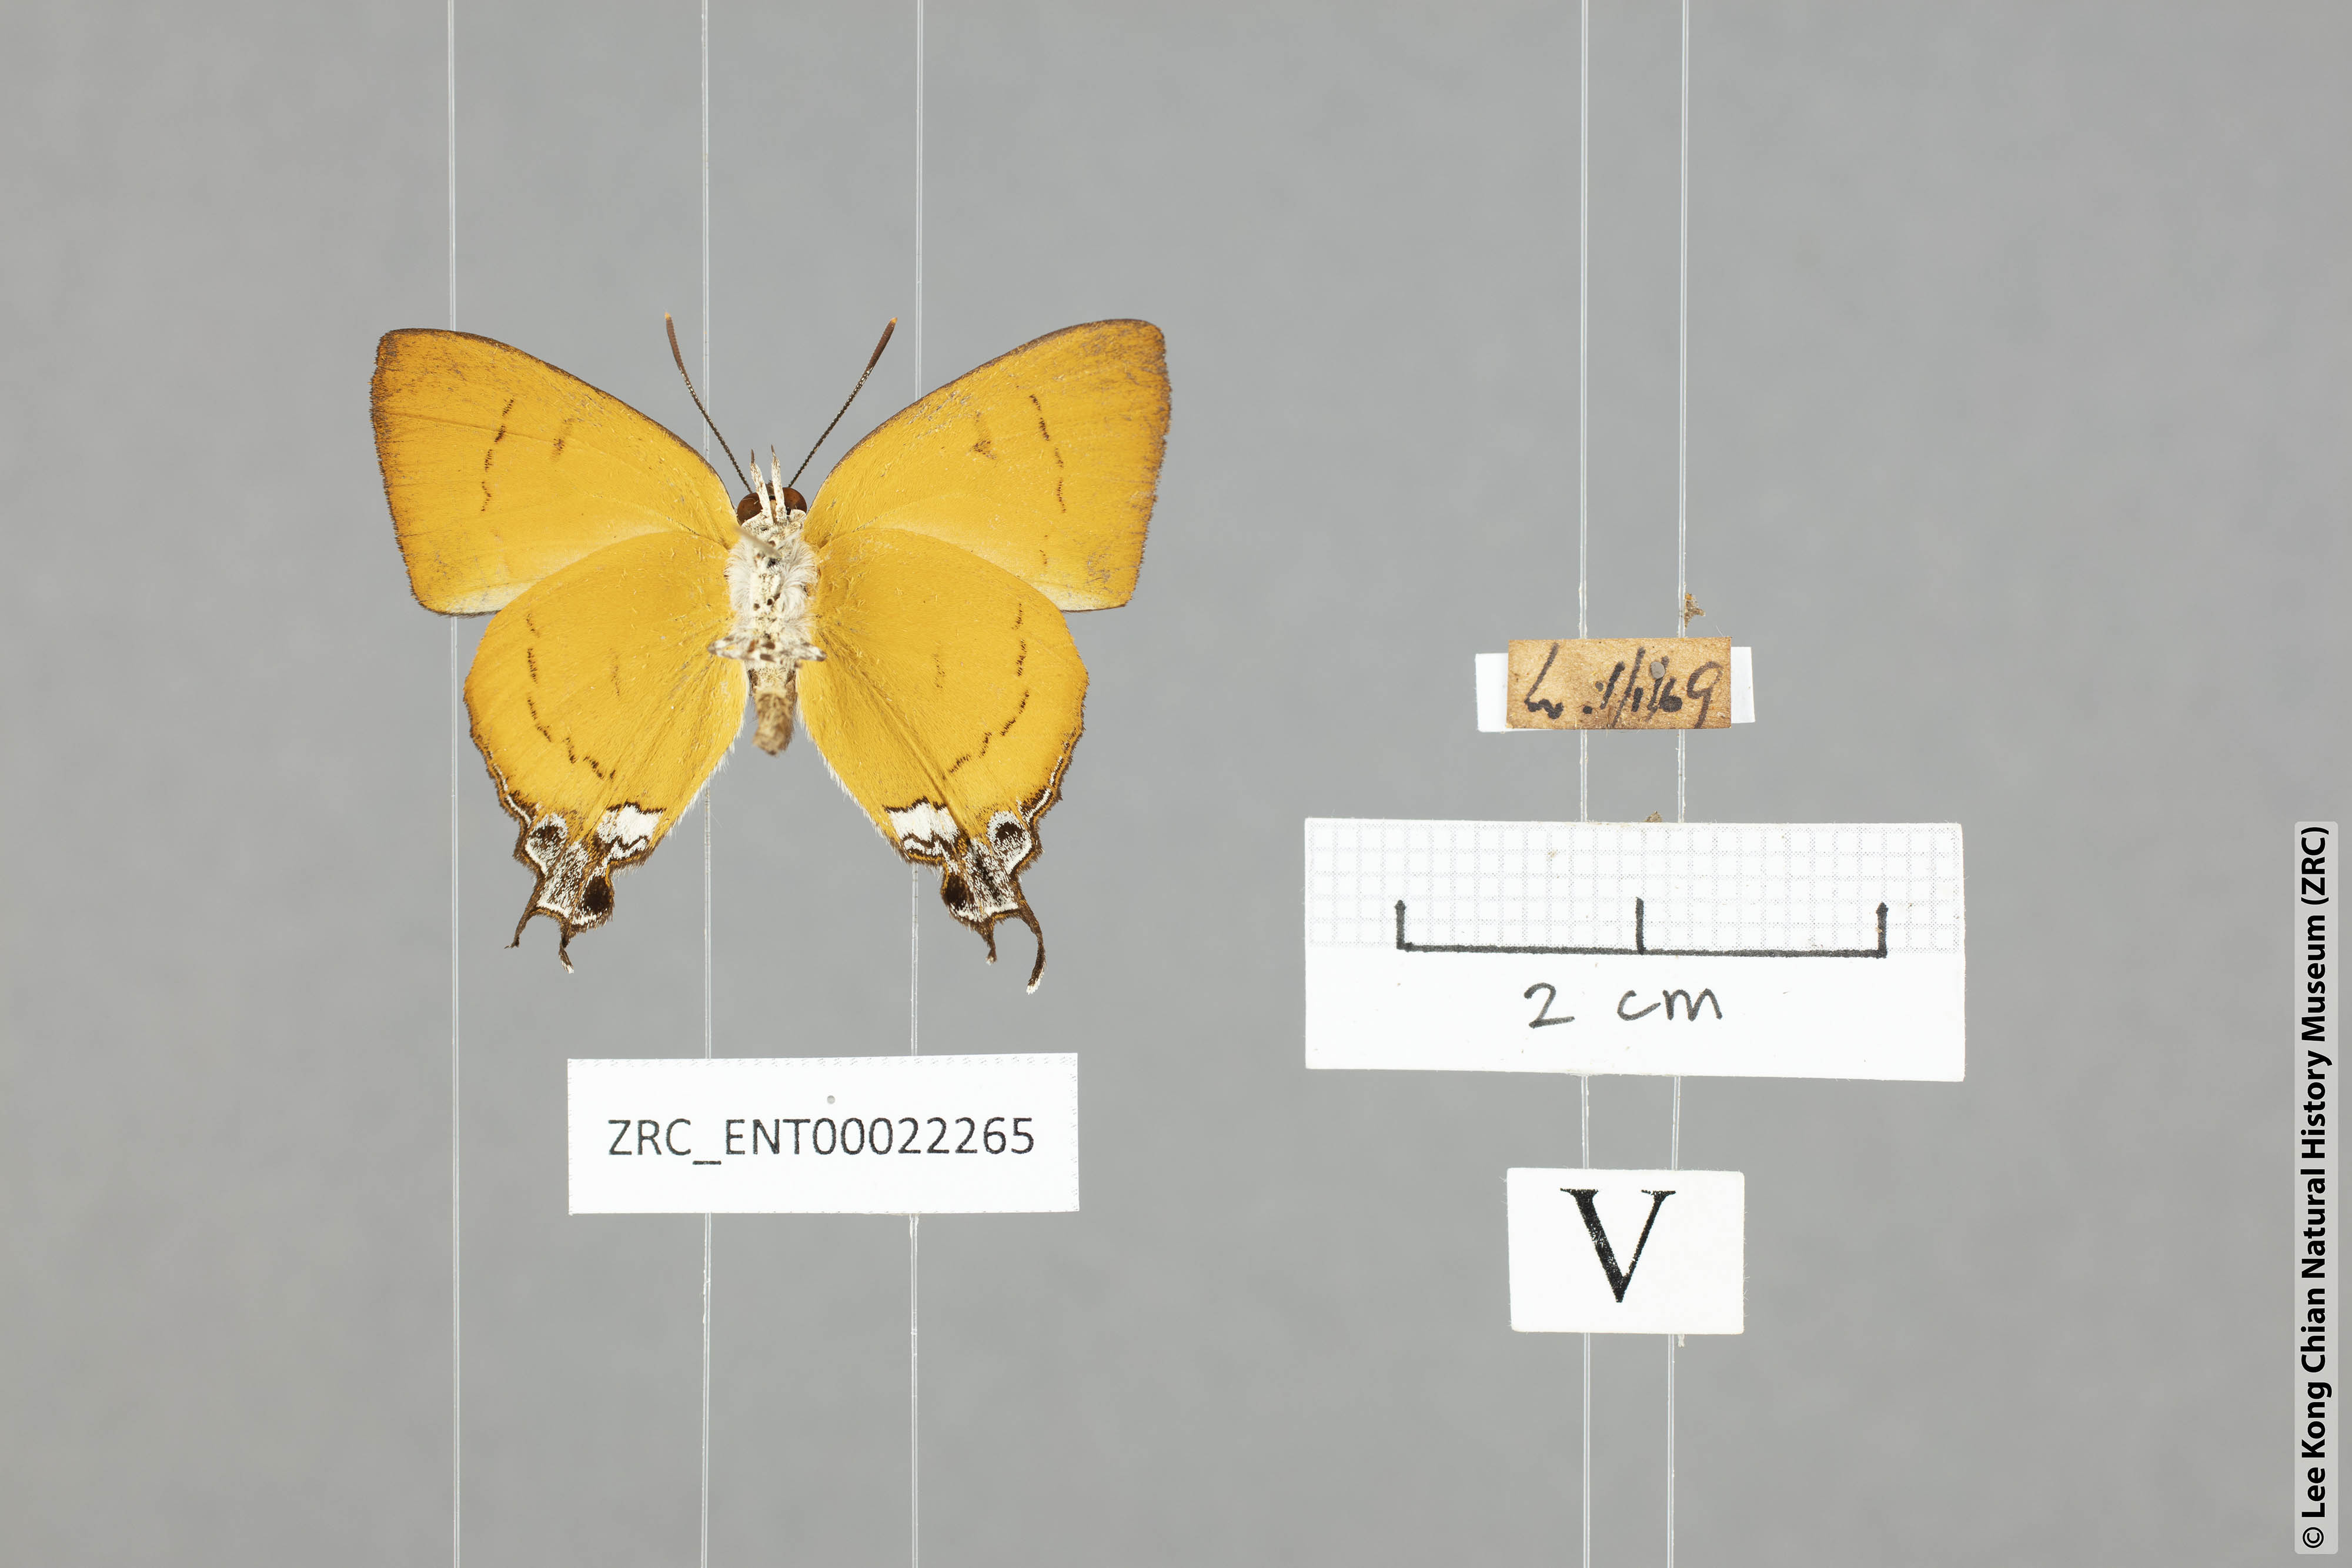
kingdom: Animalia
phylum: Arthropoda
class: Insecta
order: Lepidoptera
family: Lycaenidae
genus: Thamala
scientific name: Thamala marciana
